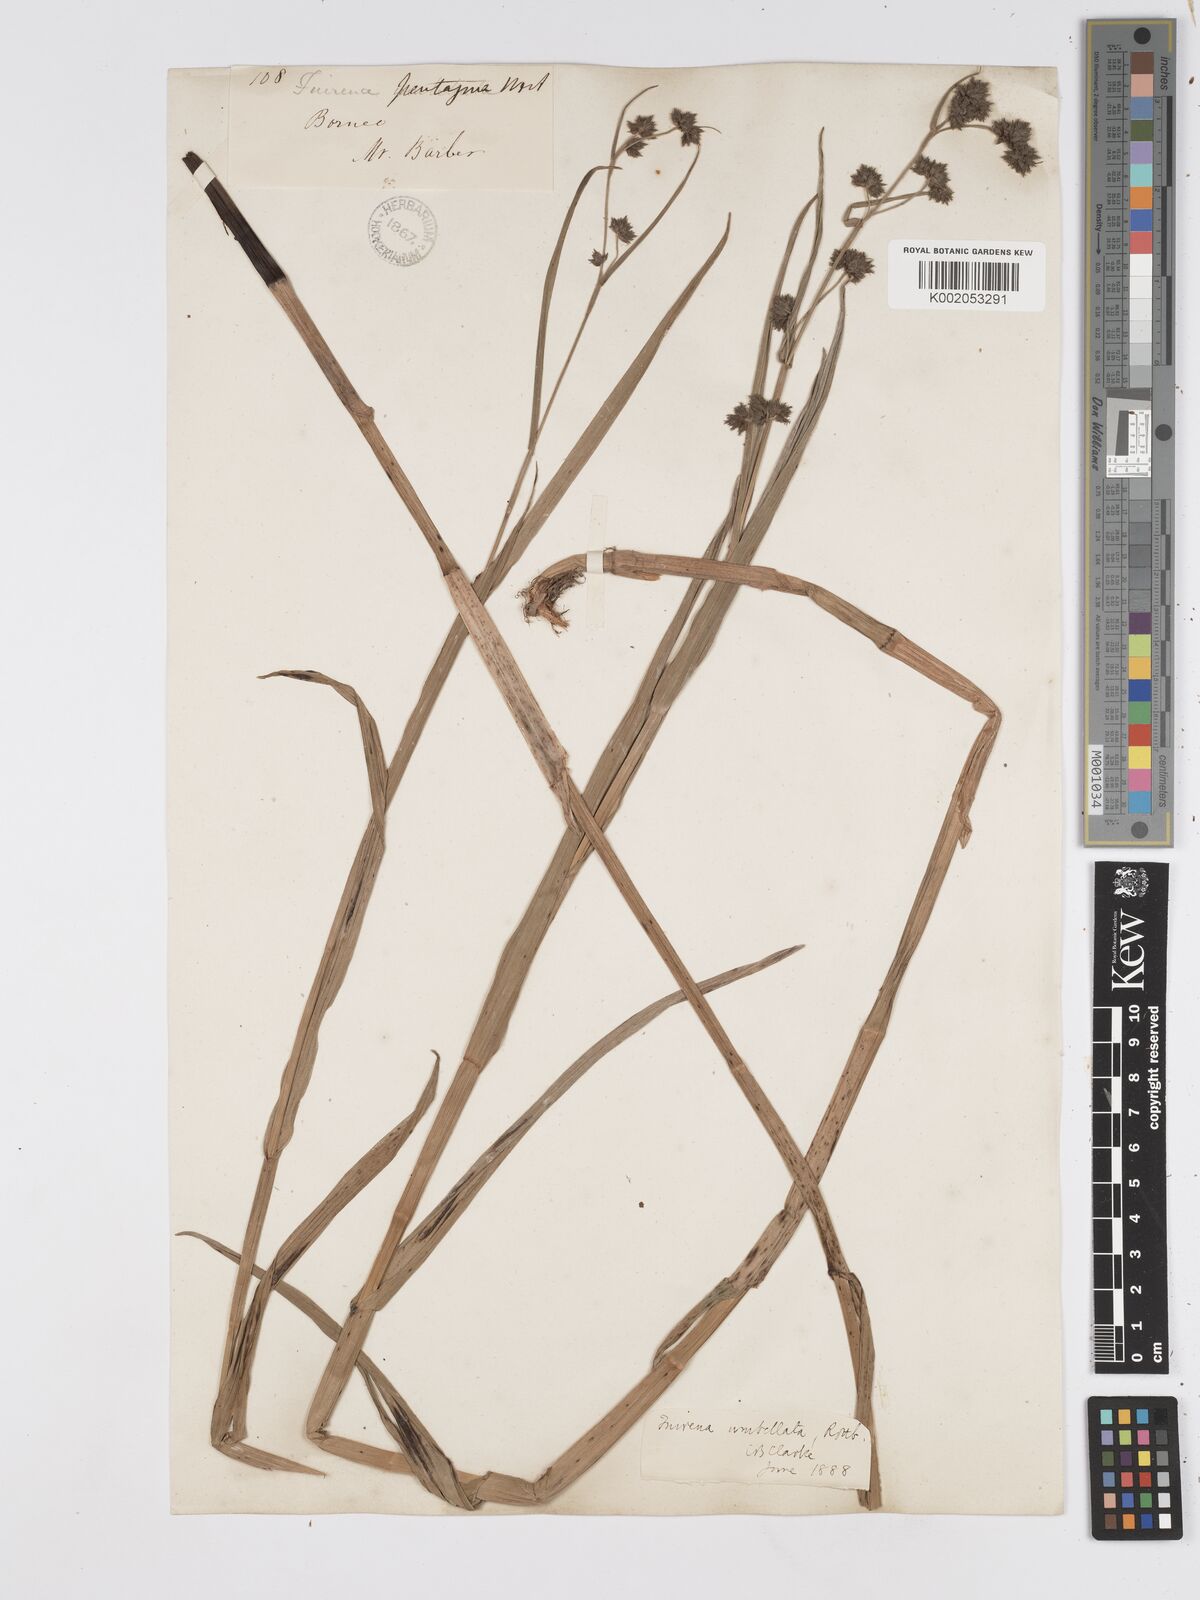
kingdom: Plantae
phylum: Tracheophyta
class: Liliopsida
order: Poales
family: Cyperaceae
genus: Fuirena
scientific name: Fuirena umbellata
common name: Yefen
